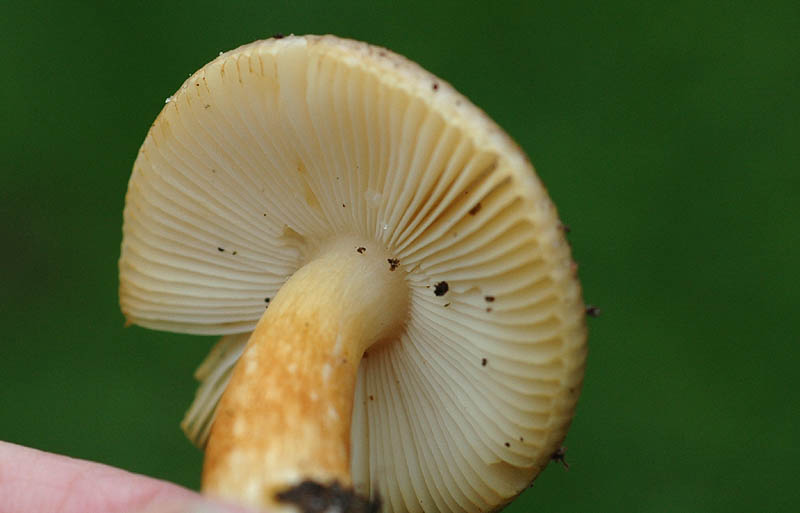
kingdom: Fungi
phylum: Basidiomycota
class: Agaricomycetes
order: Russulales
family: Russulaceae
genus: Russula
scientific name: Russula puellaris
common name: gulstokket skørhat
